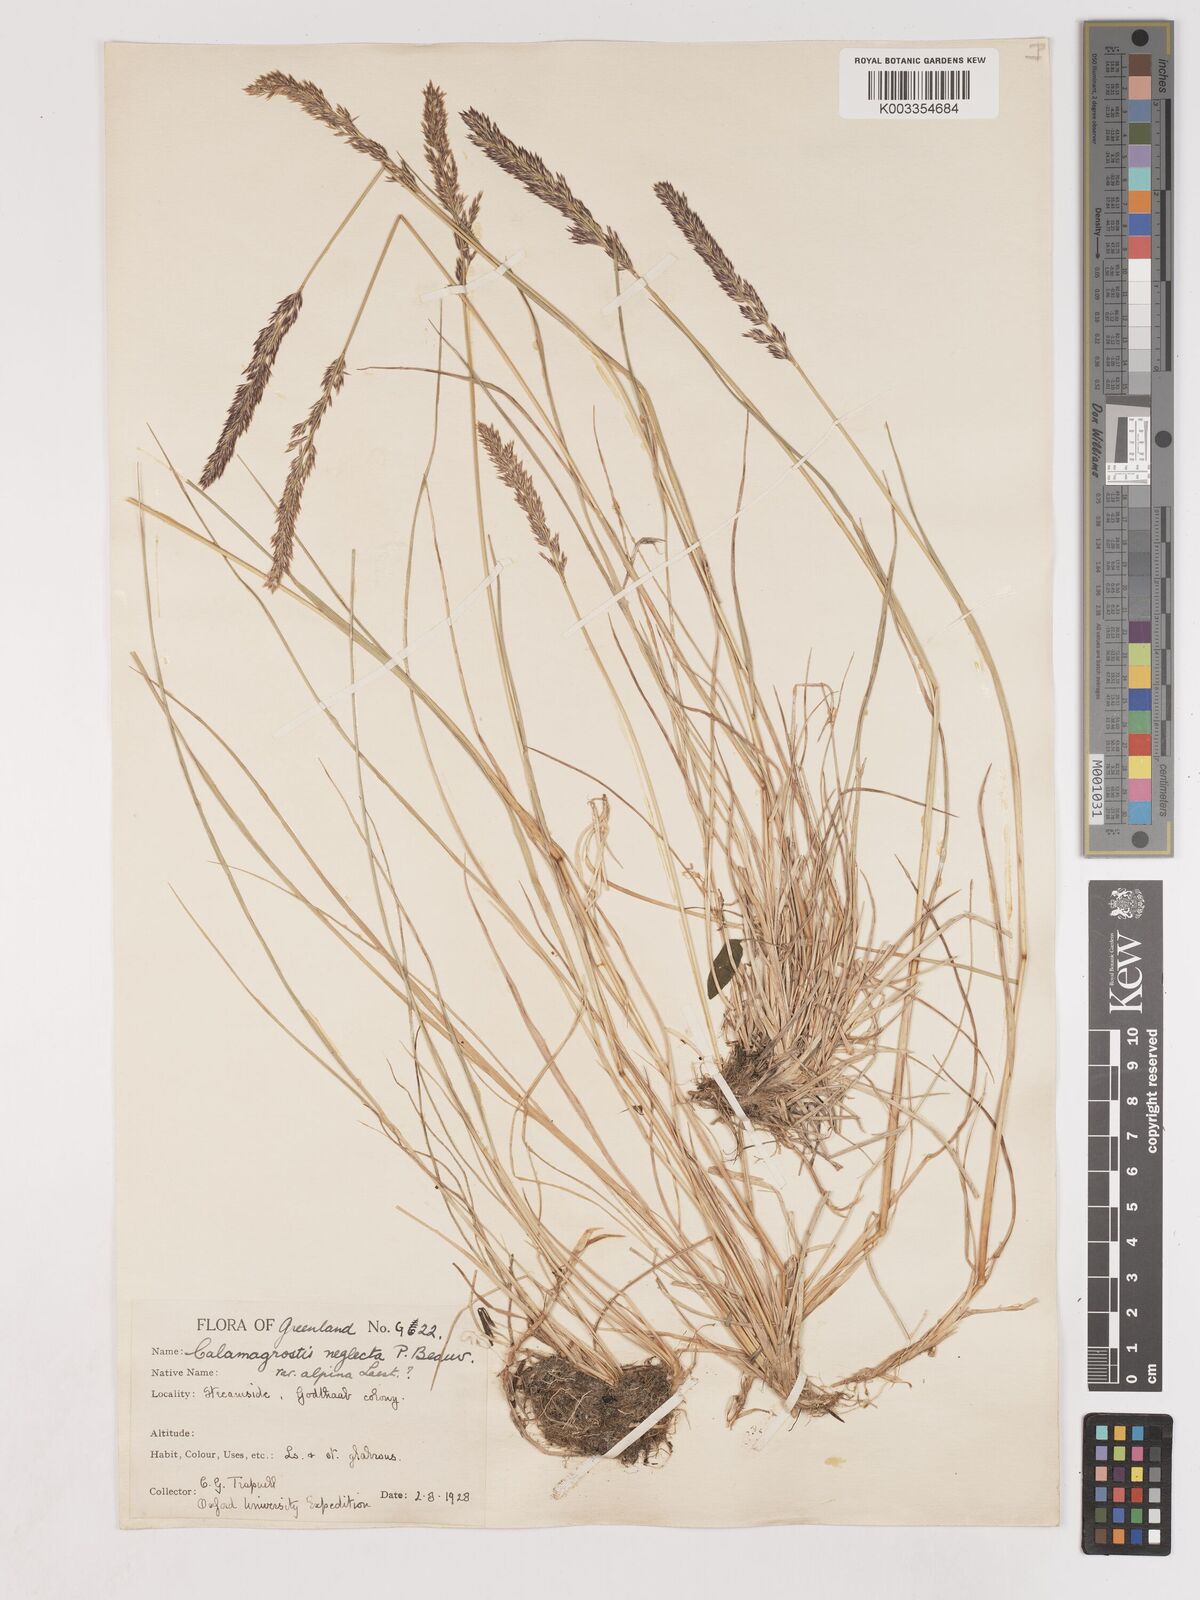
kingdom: Plantae
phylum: Tracheophyta
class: Liliopsida
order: Poales
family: Poaceae
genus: Cinnagrostis
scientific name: Cinnagrostis recta
